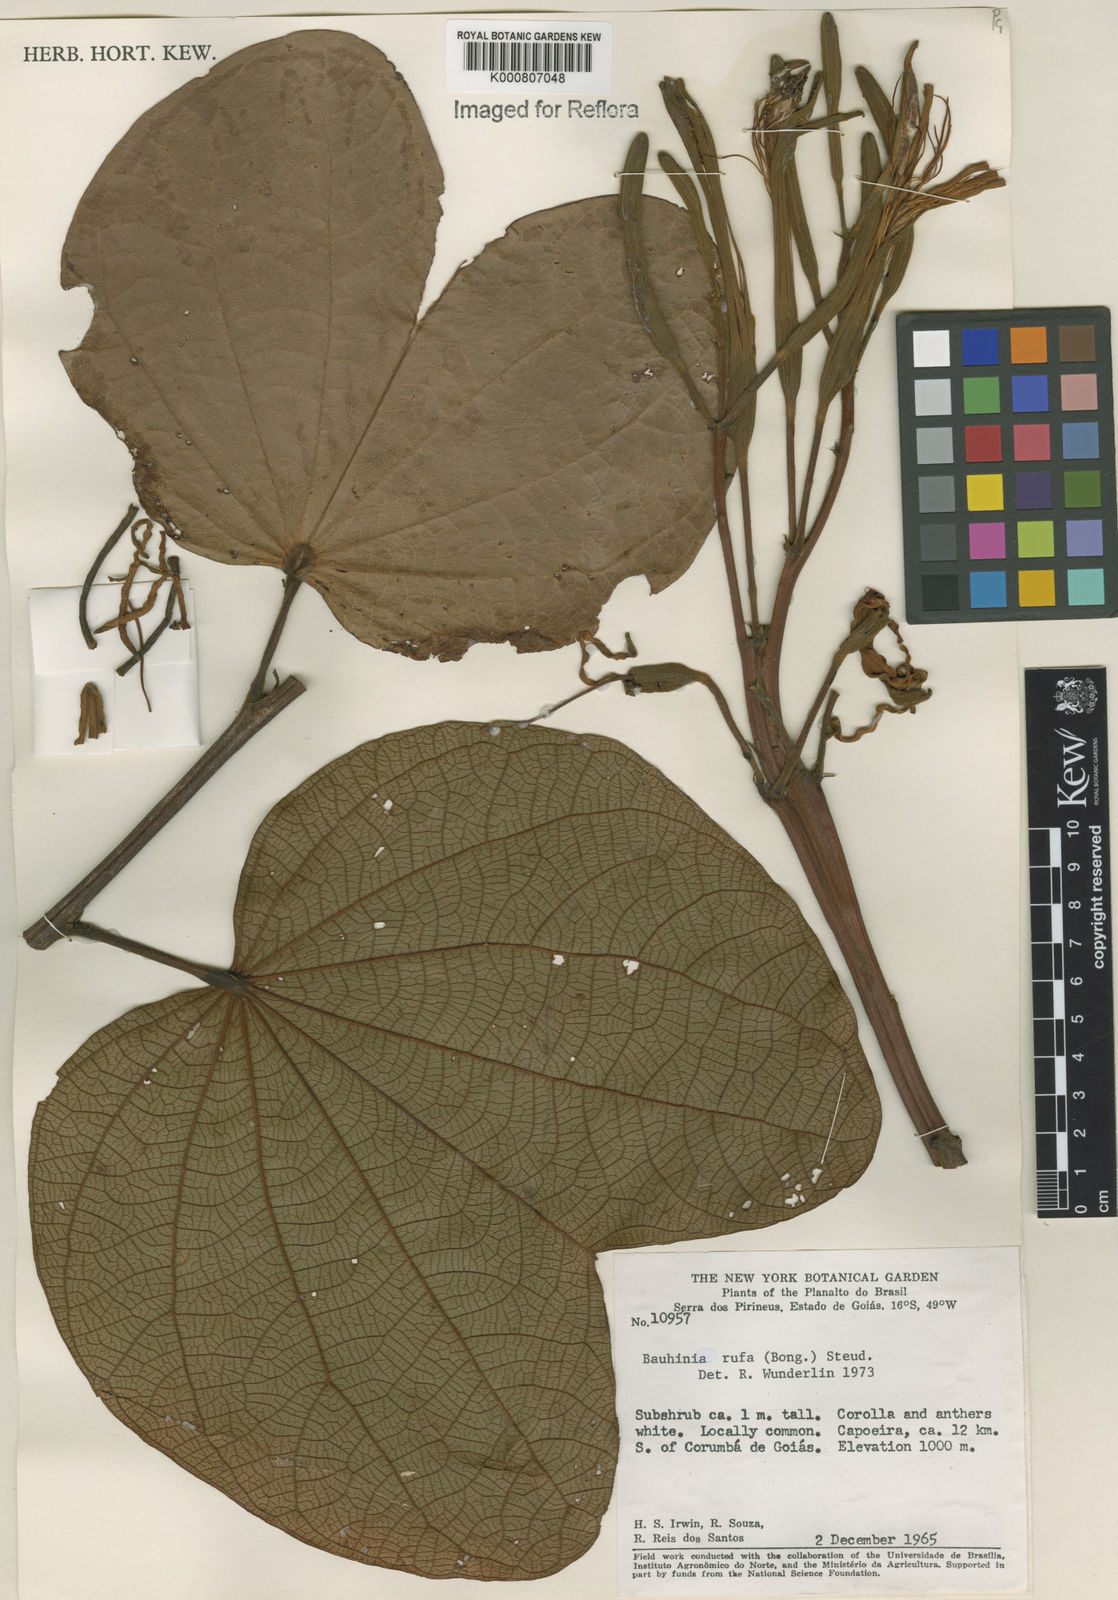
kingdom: Plantae
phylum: Tracheophyta
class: Magnoliopsida
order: Fabales
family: Fabaceae
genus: Bauhinia
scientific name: Bauhinia rufa
